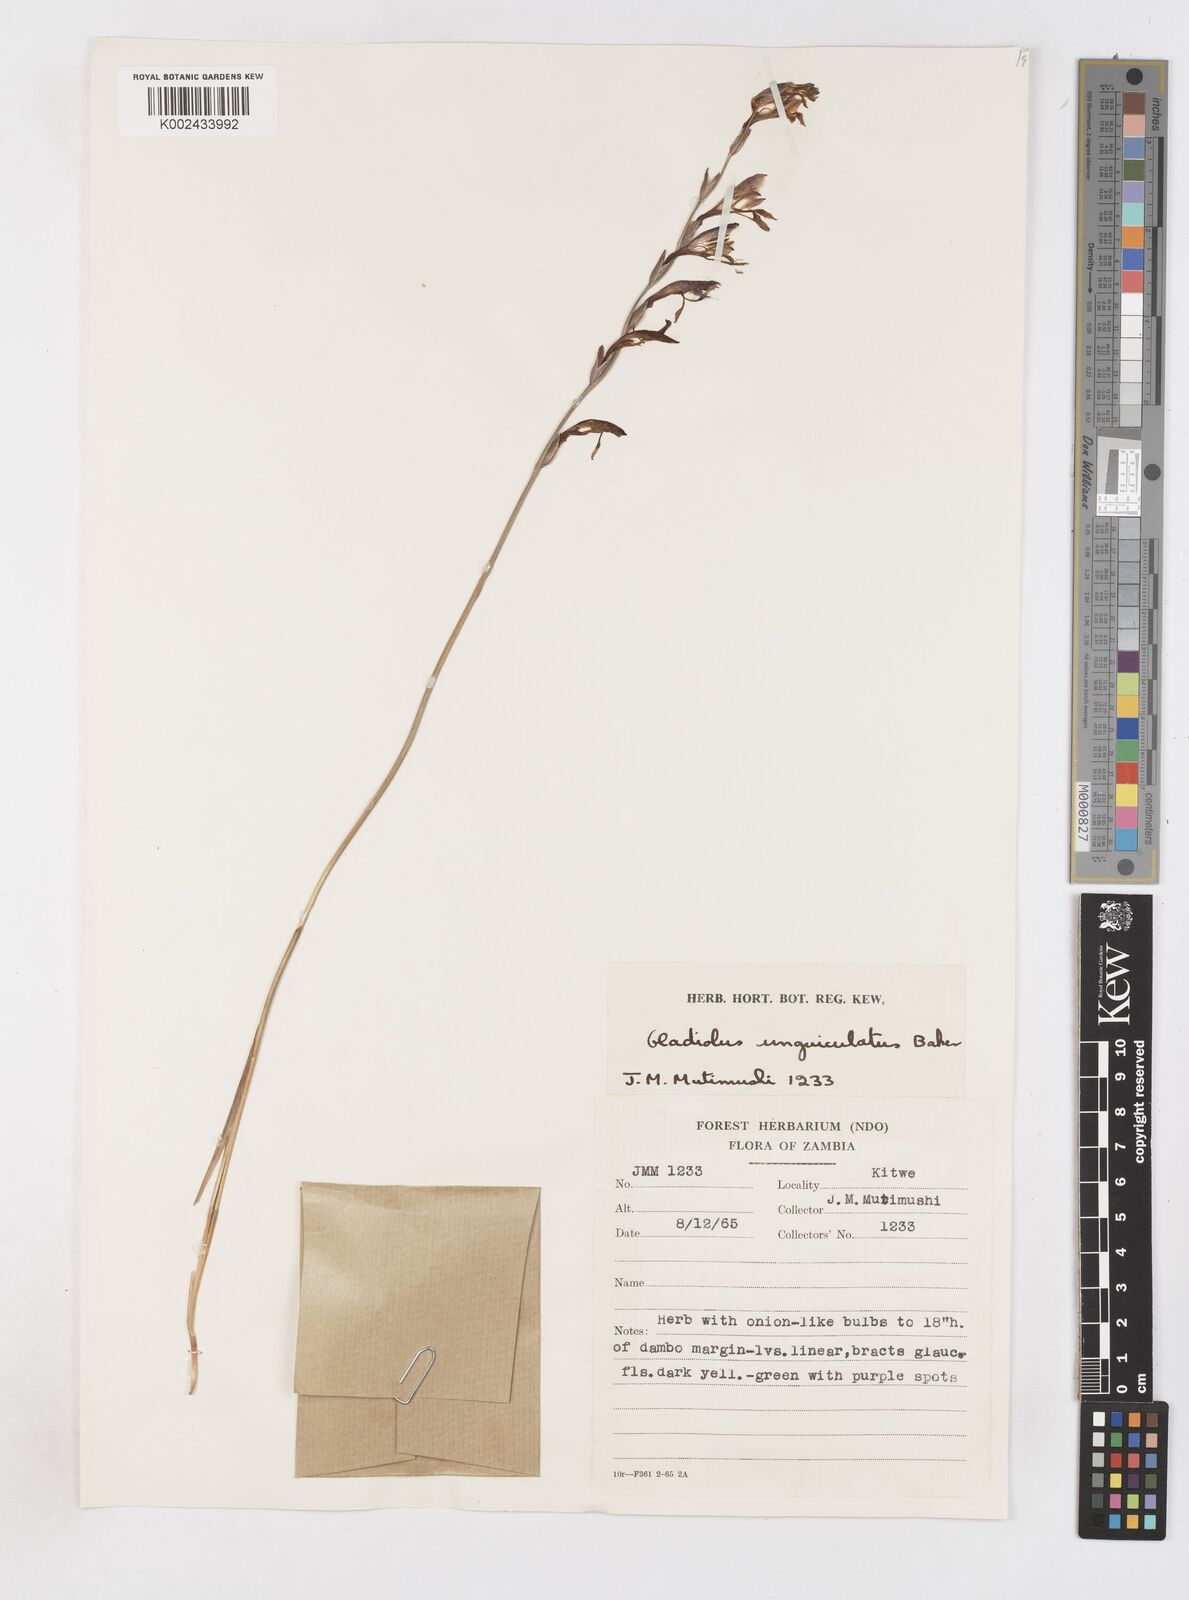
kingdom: Plantae
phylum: Tracheophyta
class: Liliopsida
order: Asparagales
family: Iridaceae
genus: Gladiolus
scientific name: Gladiolus atropurpureus
